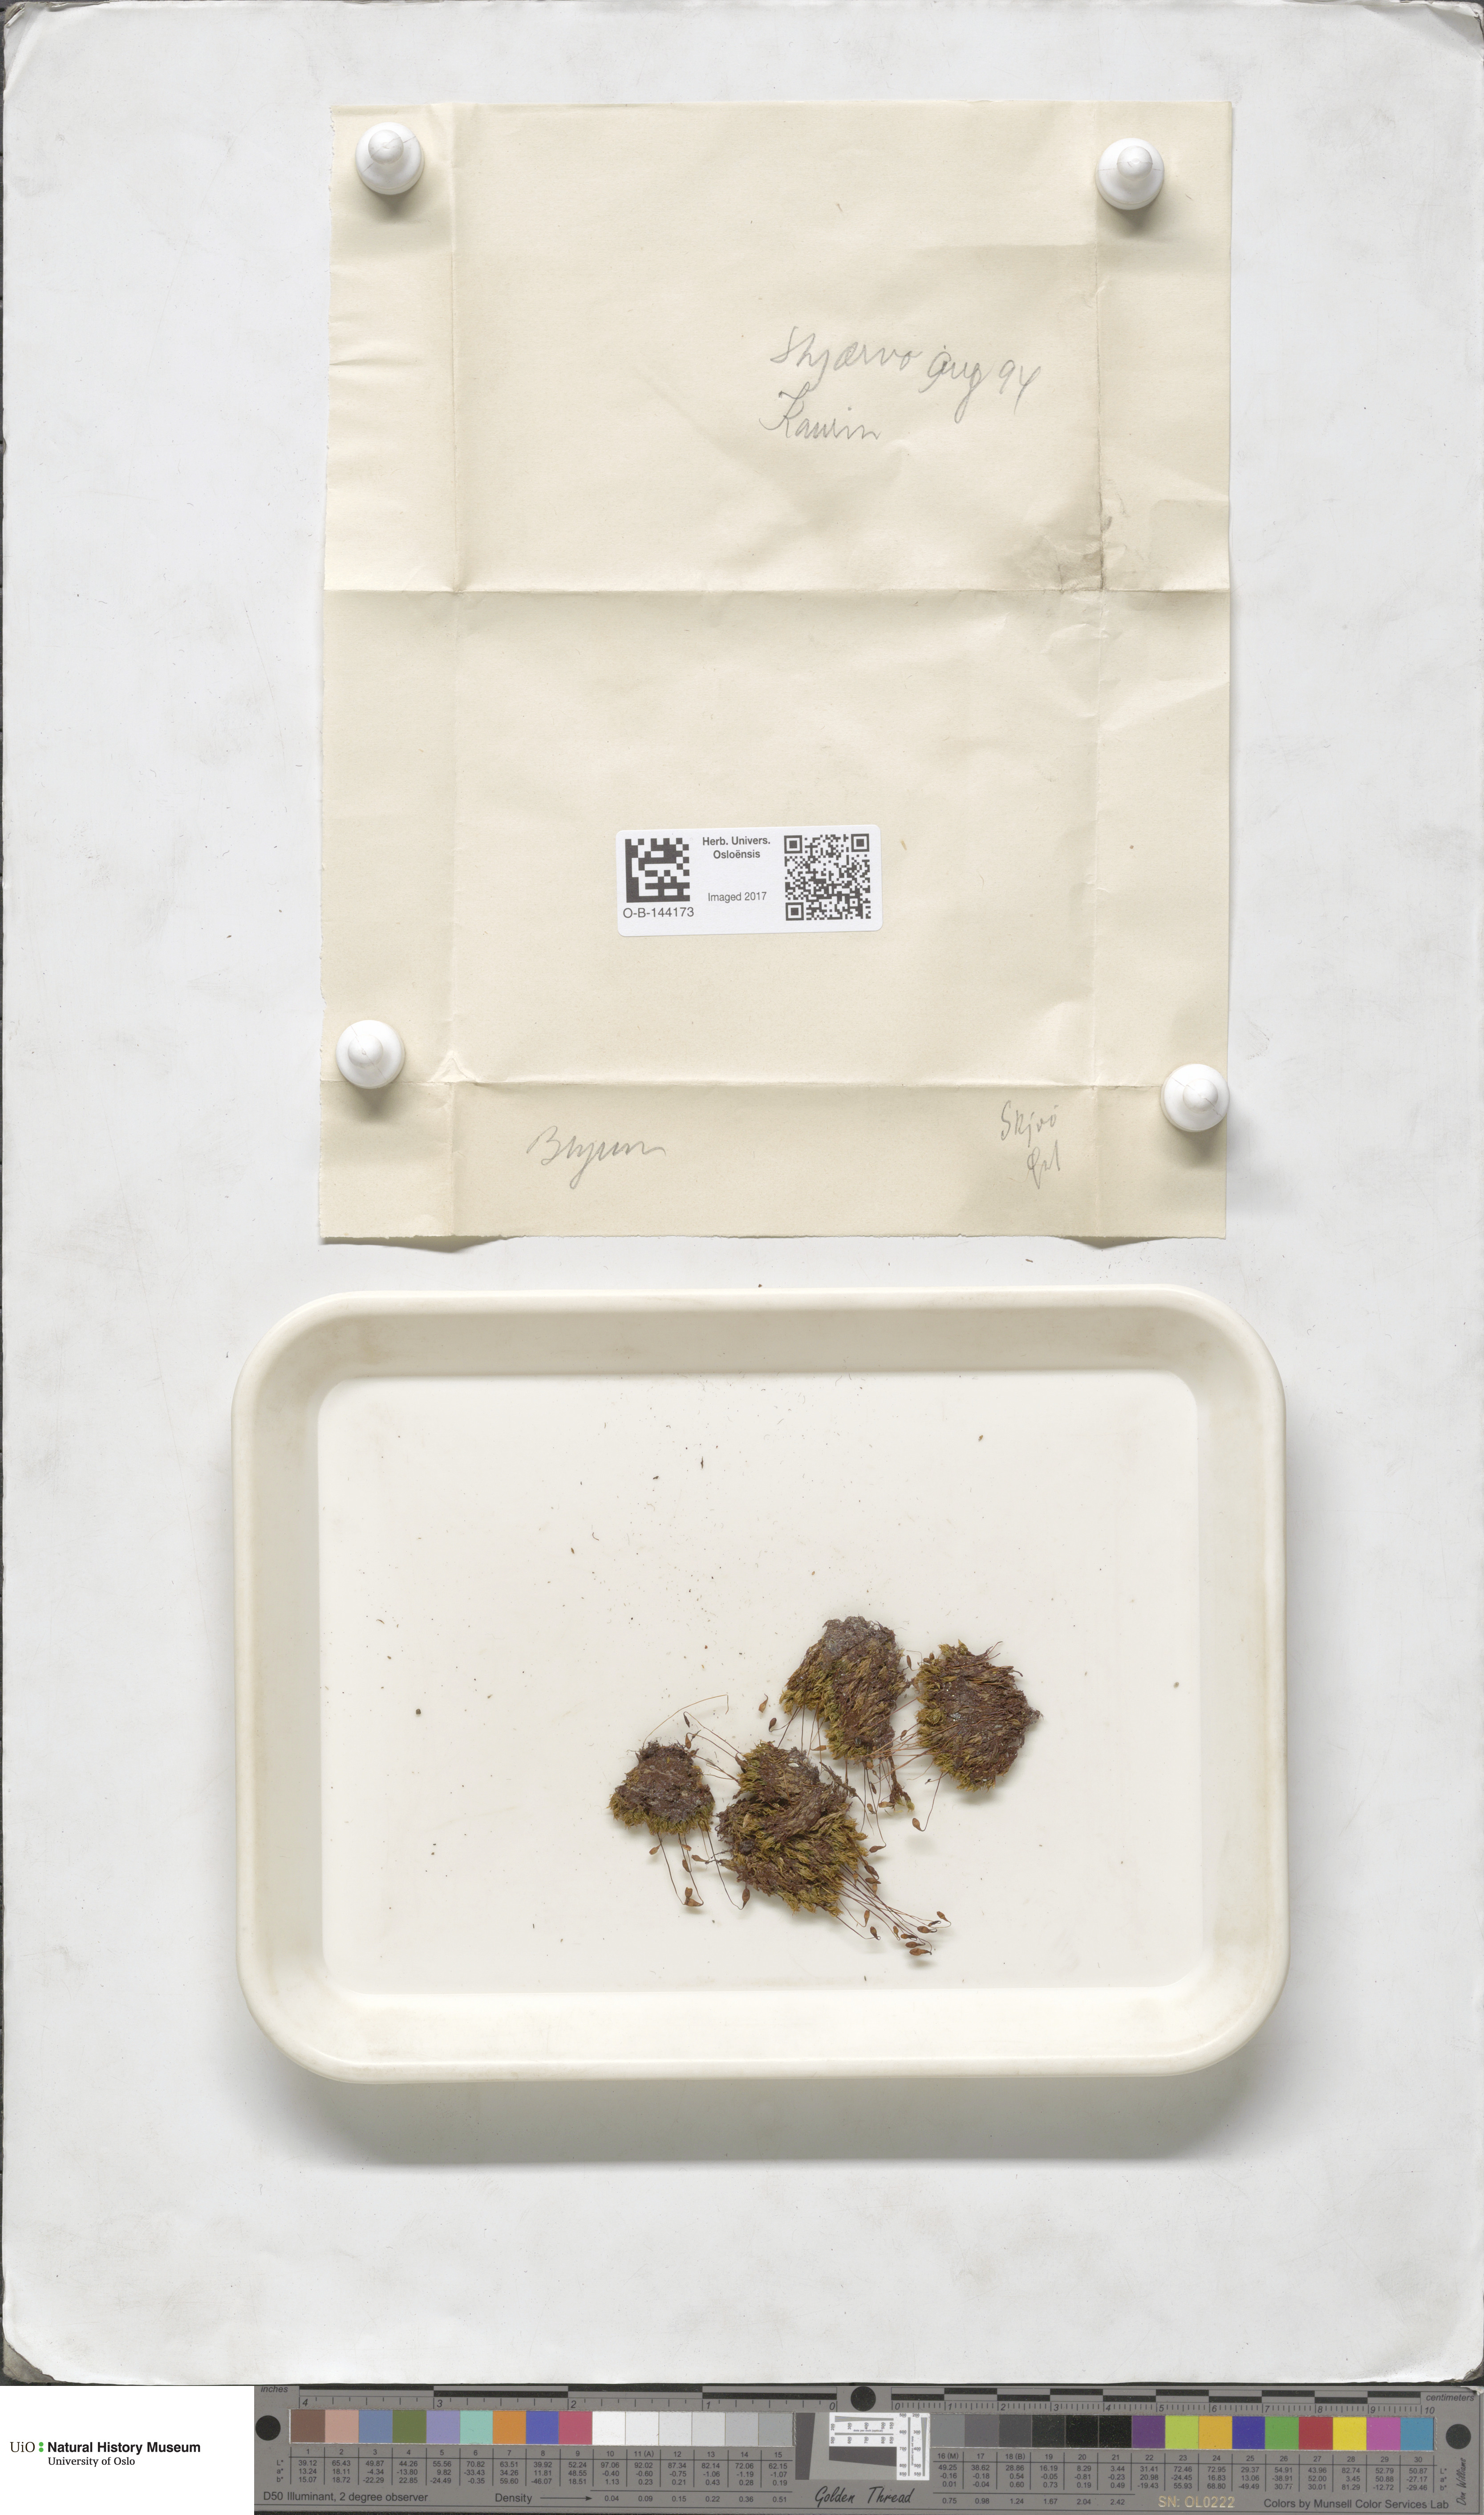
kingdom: Plantae
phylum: Bryophyta
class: Bryopsida
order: Bryales
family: Bryaceae
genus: Bryum
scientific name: Bryum
